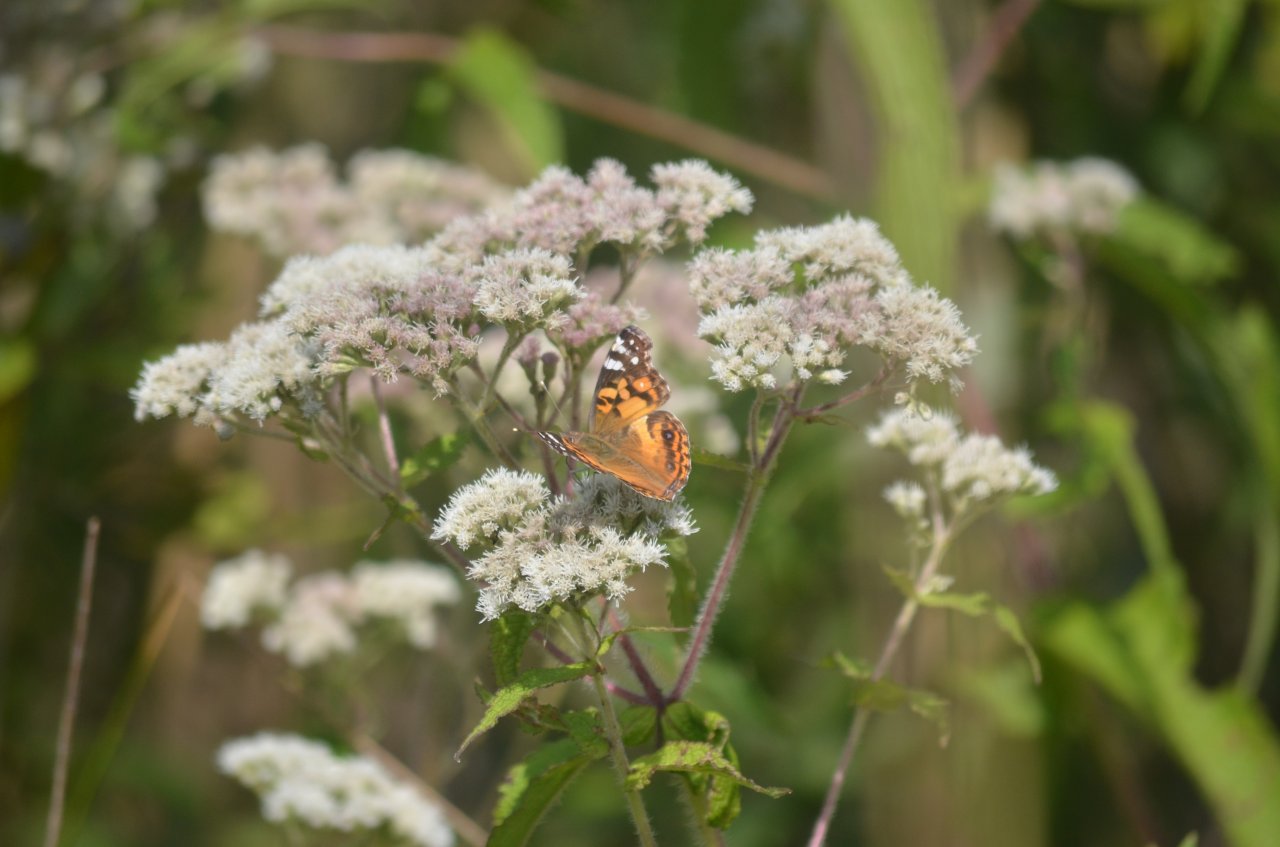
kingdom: Animalia
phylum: Arthropoda
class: Insecta
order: Lepidoptera
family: Nymphalidae
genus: Vanessa
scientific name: Vanessa virginiensis
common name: American Lady
